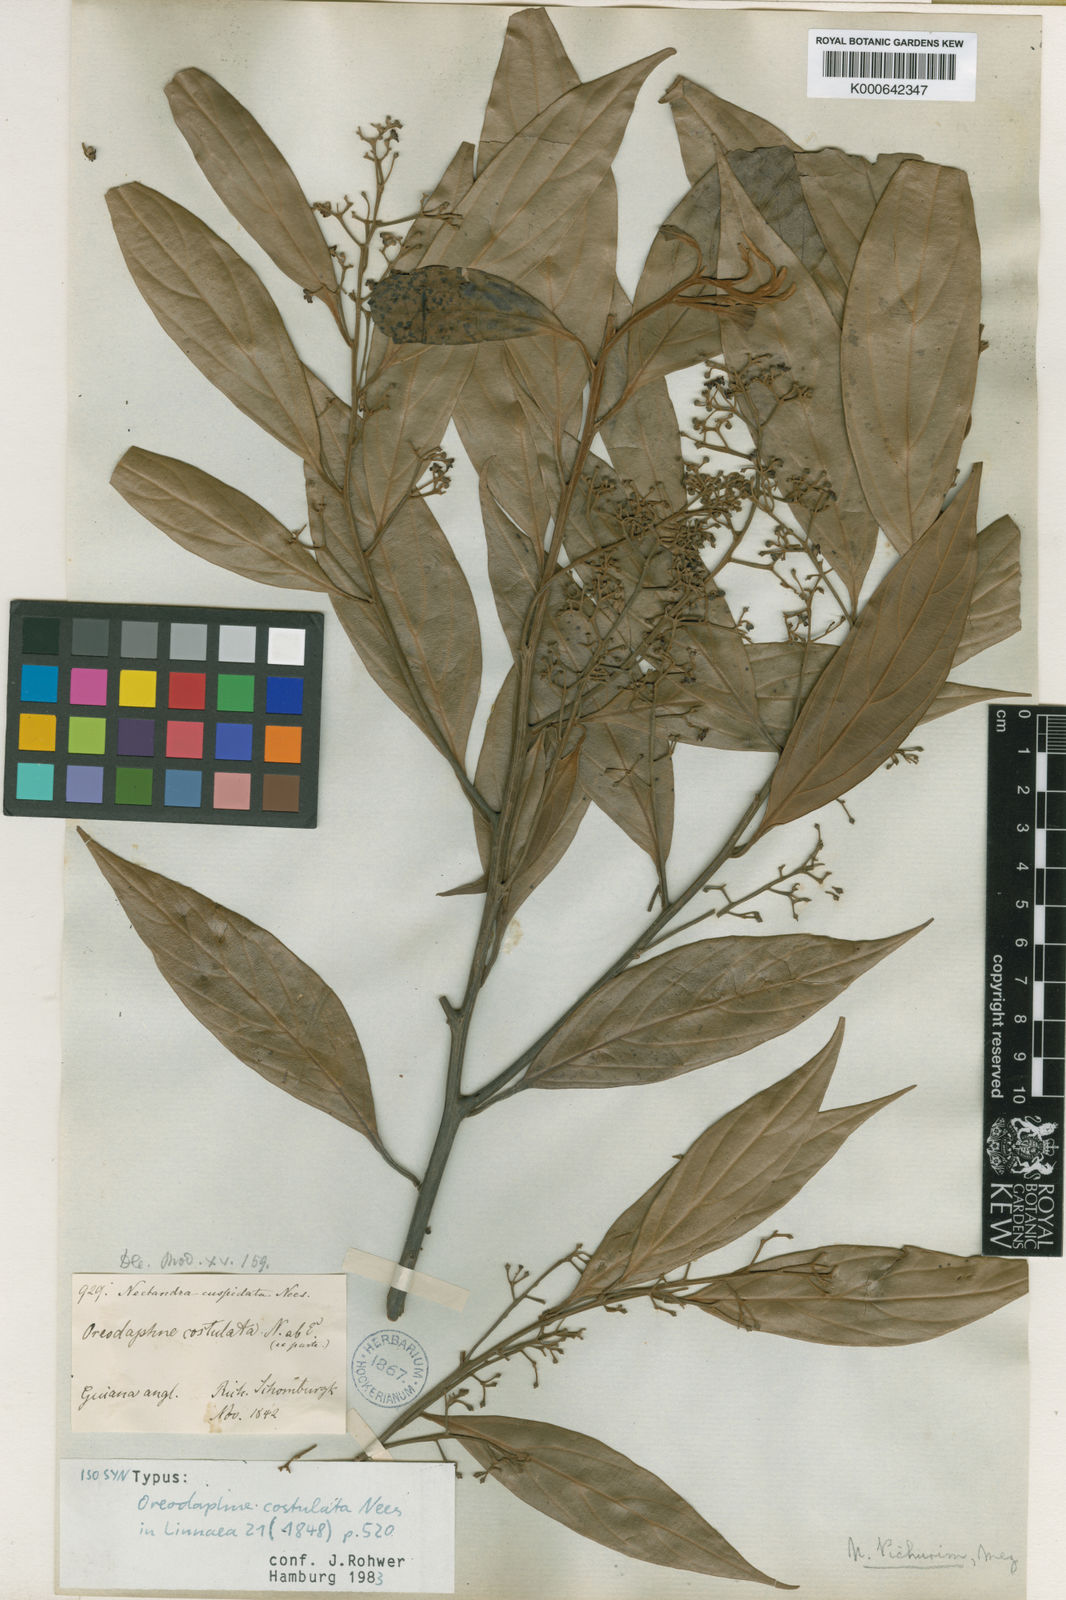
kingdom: Plantae
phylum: Tracheophyta
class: Magnoliopsida
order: Laurales
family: Lauraceae
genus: Nectandra
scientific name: Nectandra cuspidata
